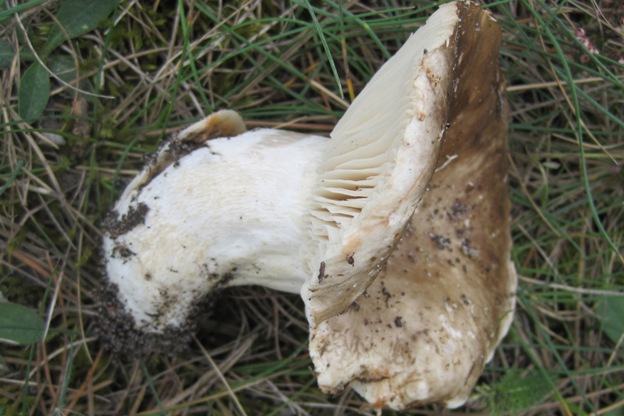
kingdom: Fungi
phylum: Basidiomycota
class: Agaricomycetes
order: Russulales
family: Russulaceae
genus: Russula
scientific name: Russula adusta
